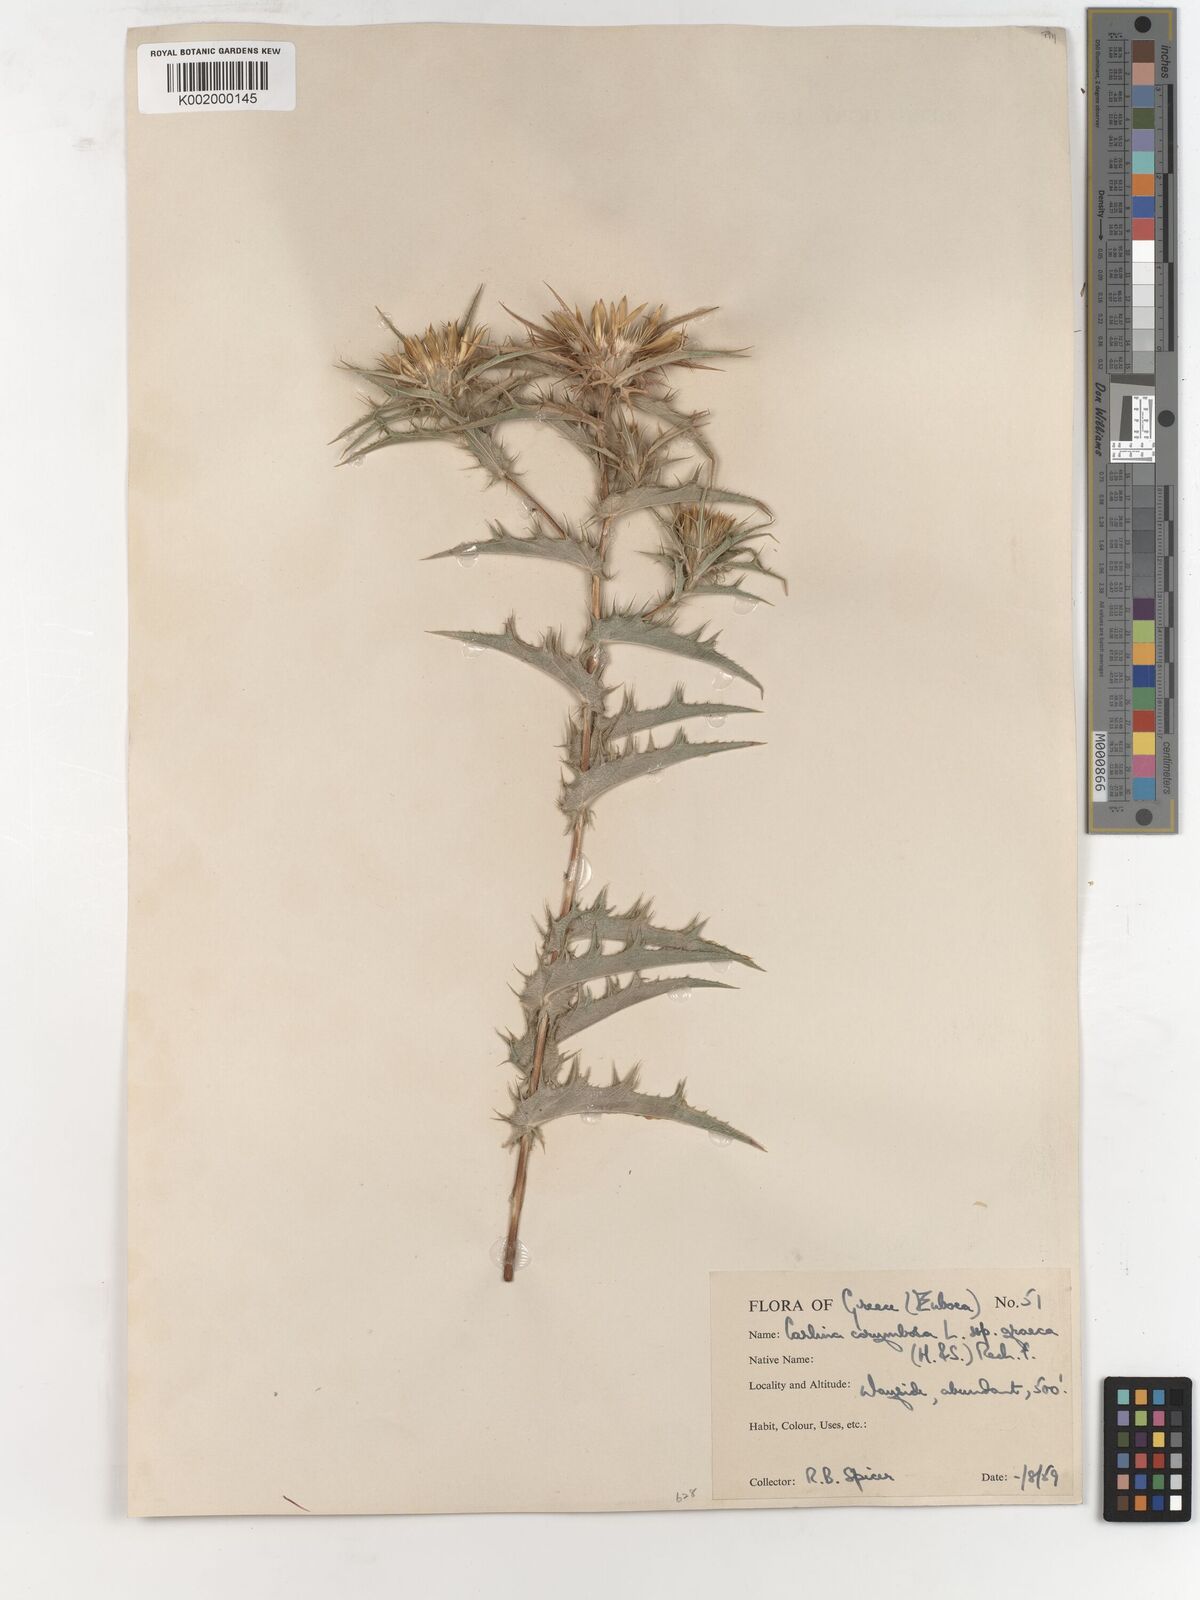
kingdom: Plantae
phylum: Tracheophyta
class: Magnoliopsida
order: Asterales
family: Asteraceae
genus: Carlina
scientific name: Carlina corymbosa
